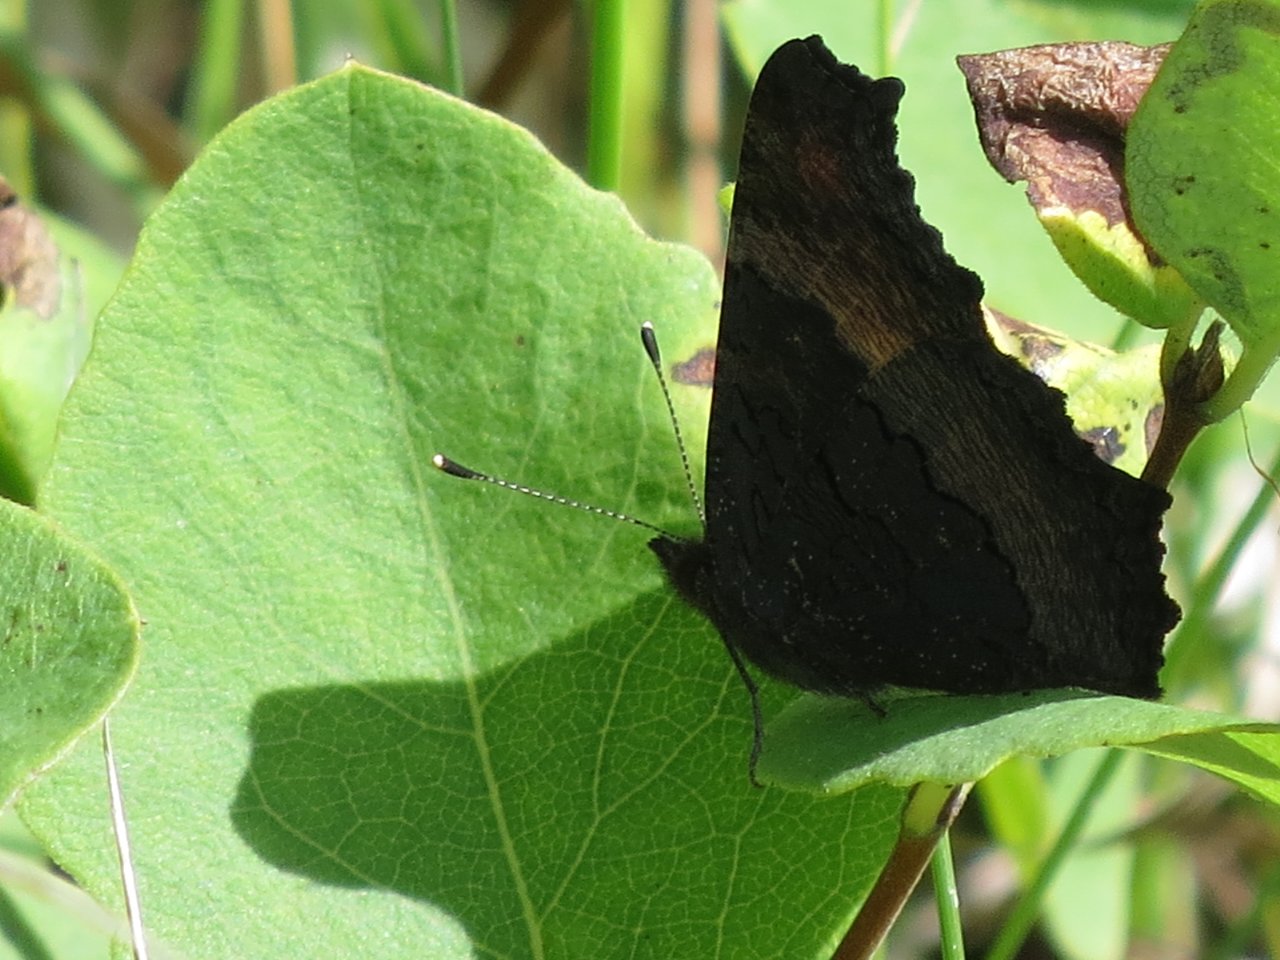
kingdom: Animalia
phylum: Arthropoda
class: Insecta
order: Lepidoptera
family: Nymphalidae
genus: Aglais
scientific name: Aglais milberti
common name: Milbert's Tortoiseshell
